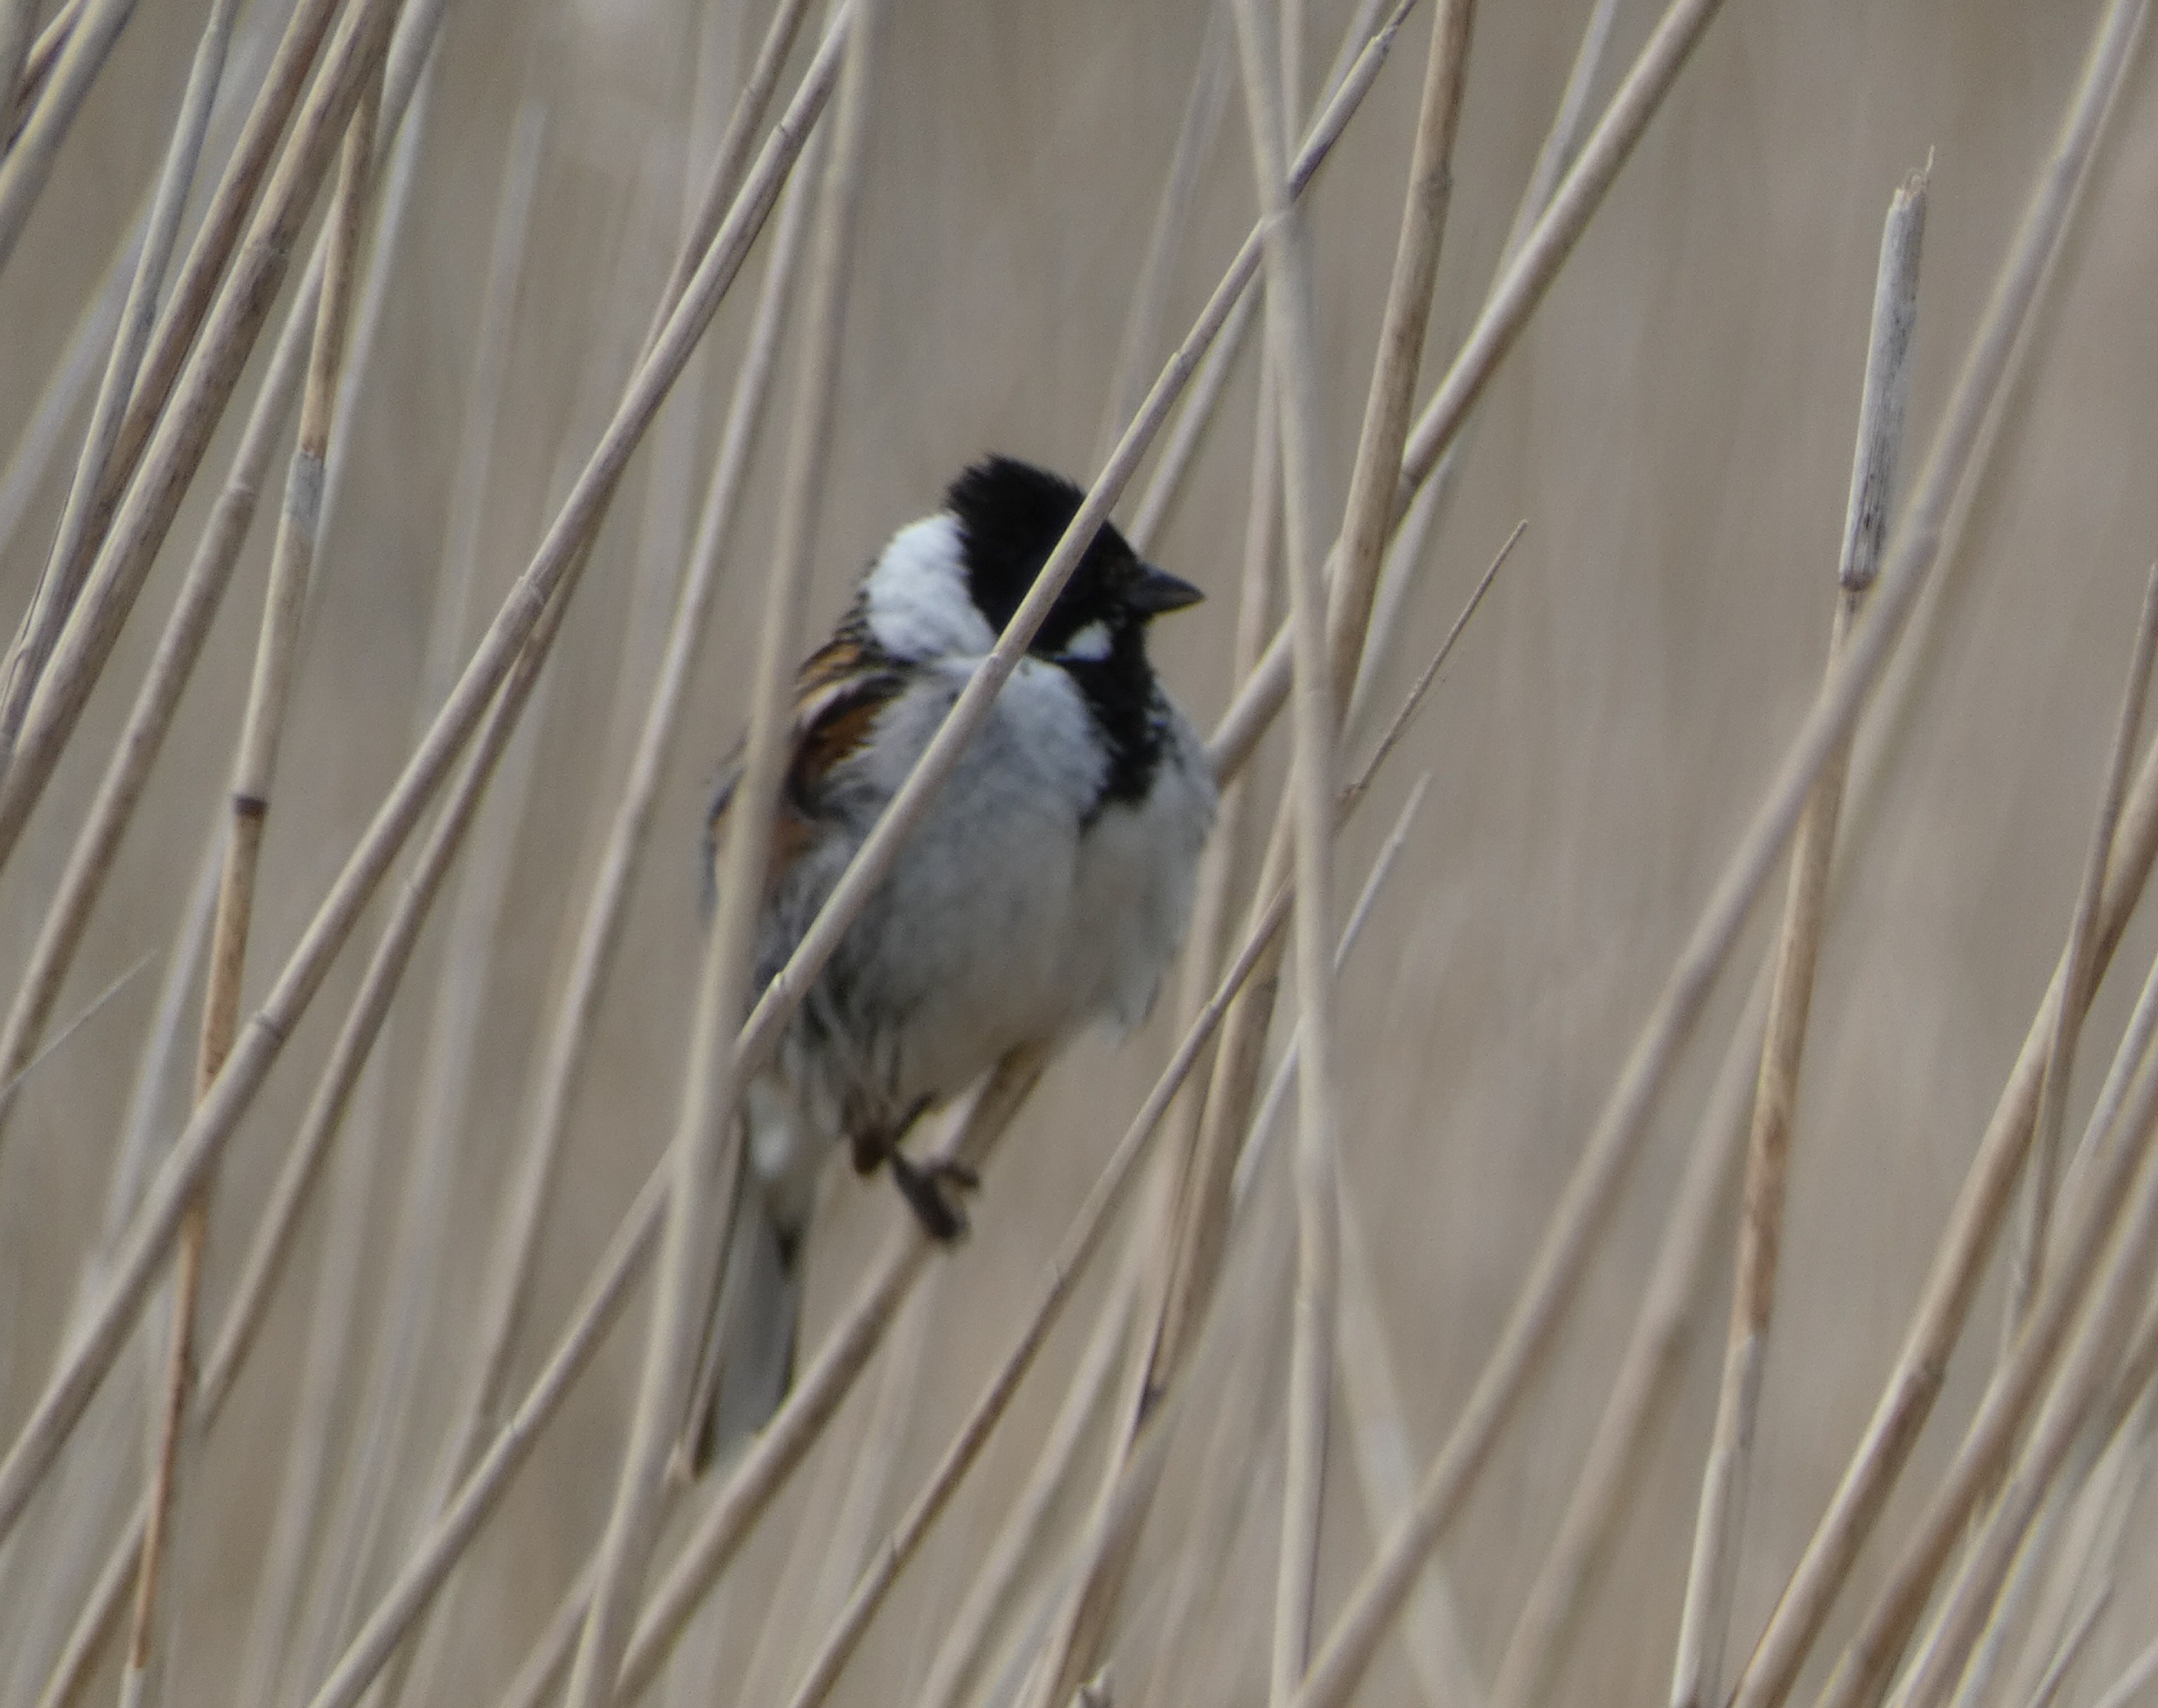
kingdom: Animalia
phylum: Chordata
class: Aves
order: Passeriformes
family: Emberizidae
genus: Emberiza
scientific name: Emberiza schoeniclus
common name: Rørspurv
